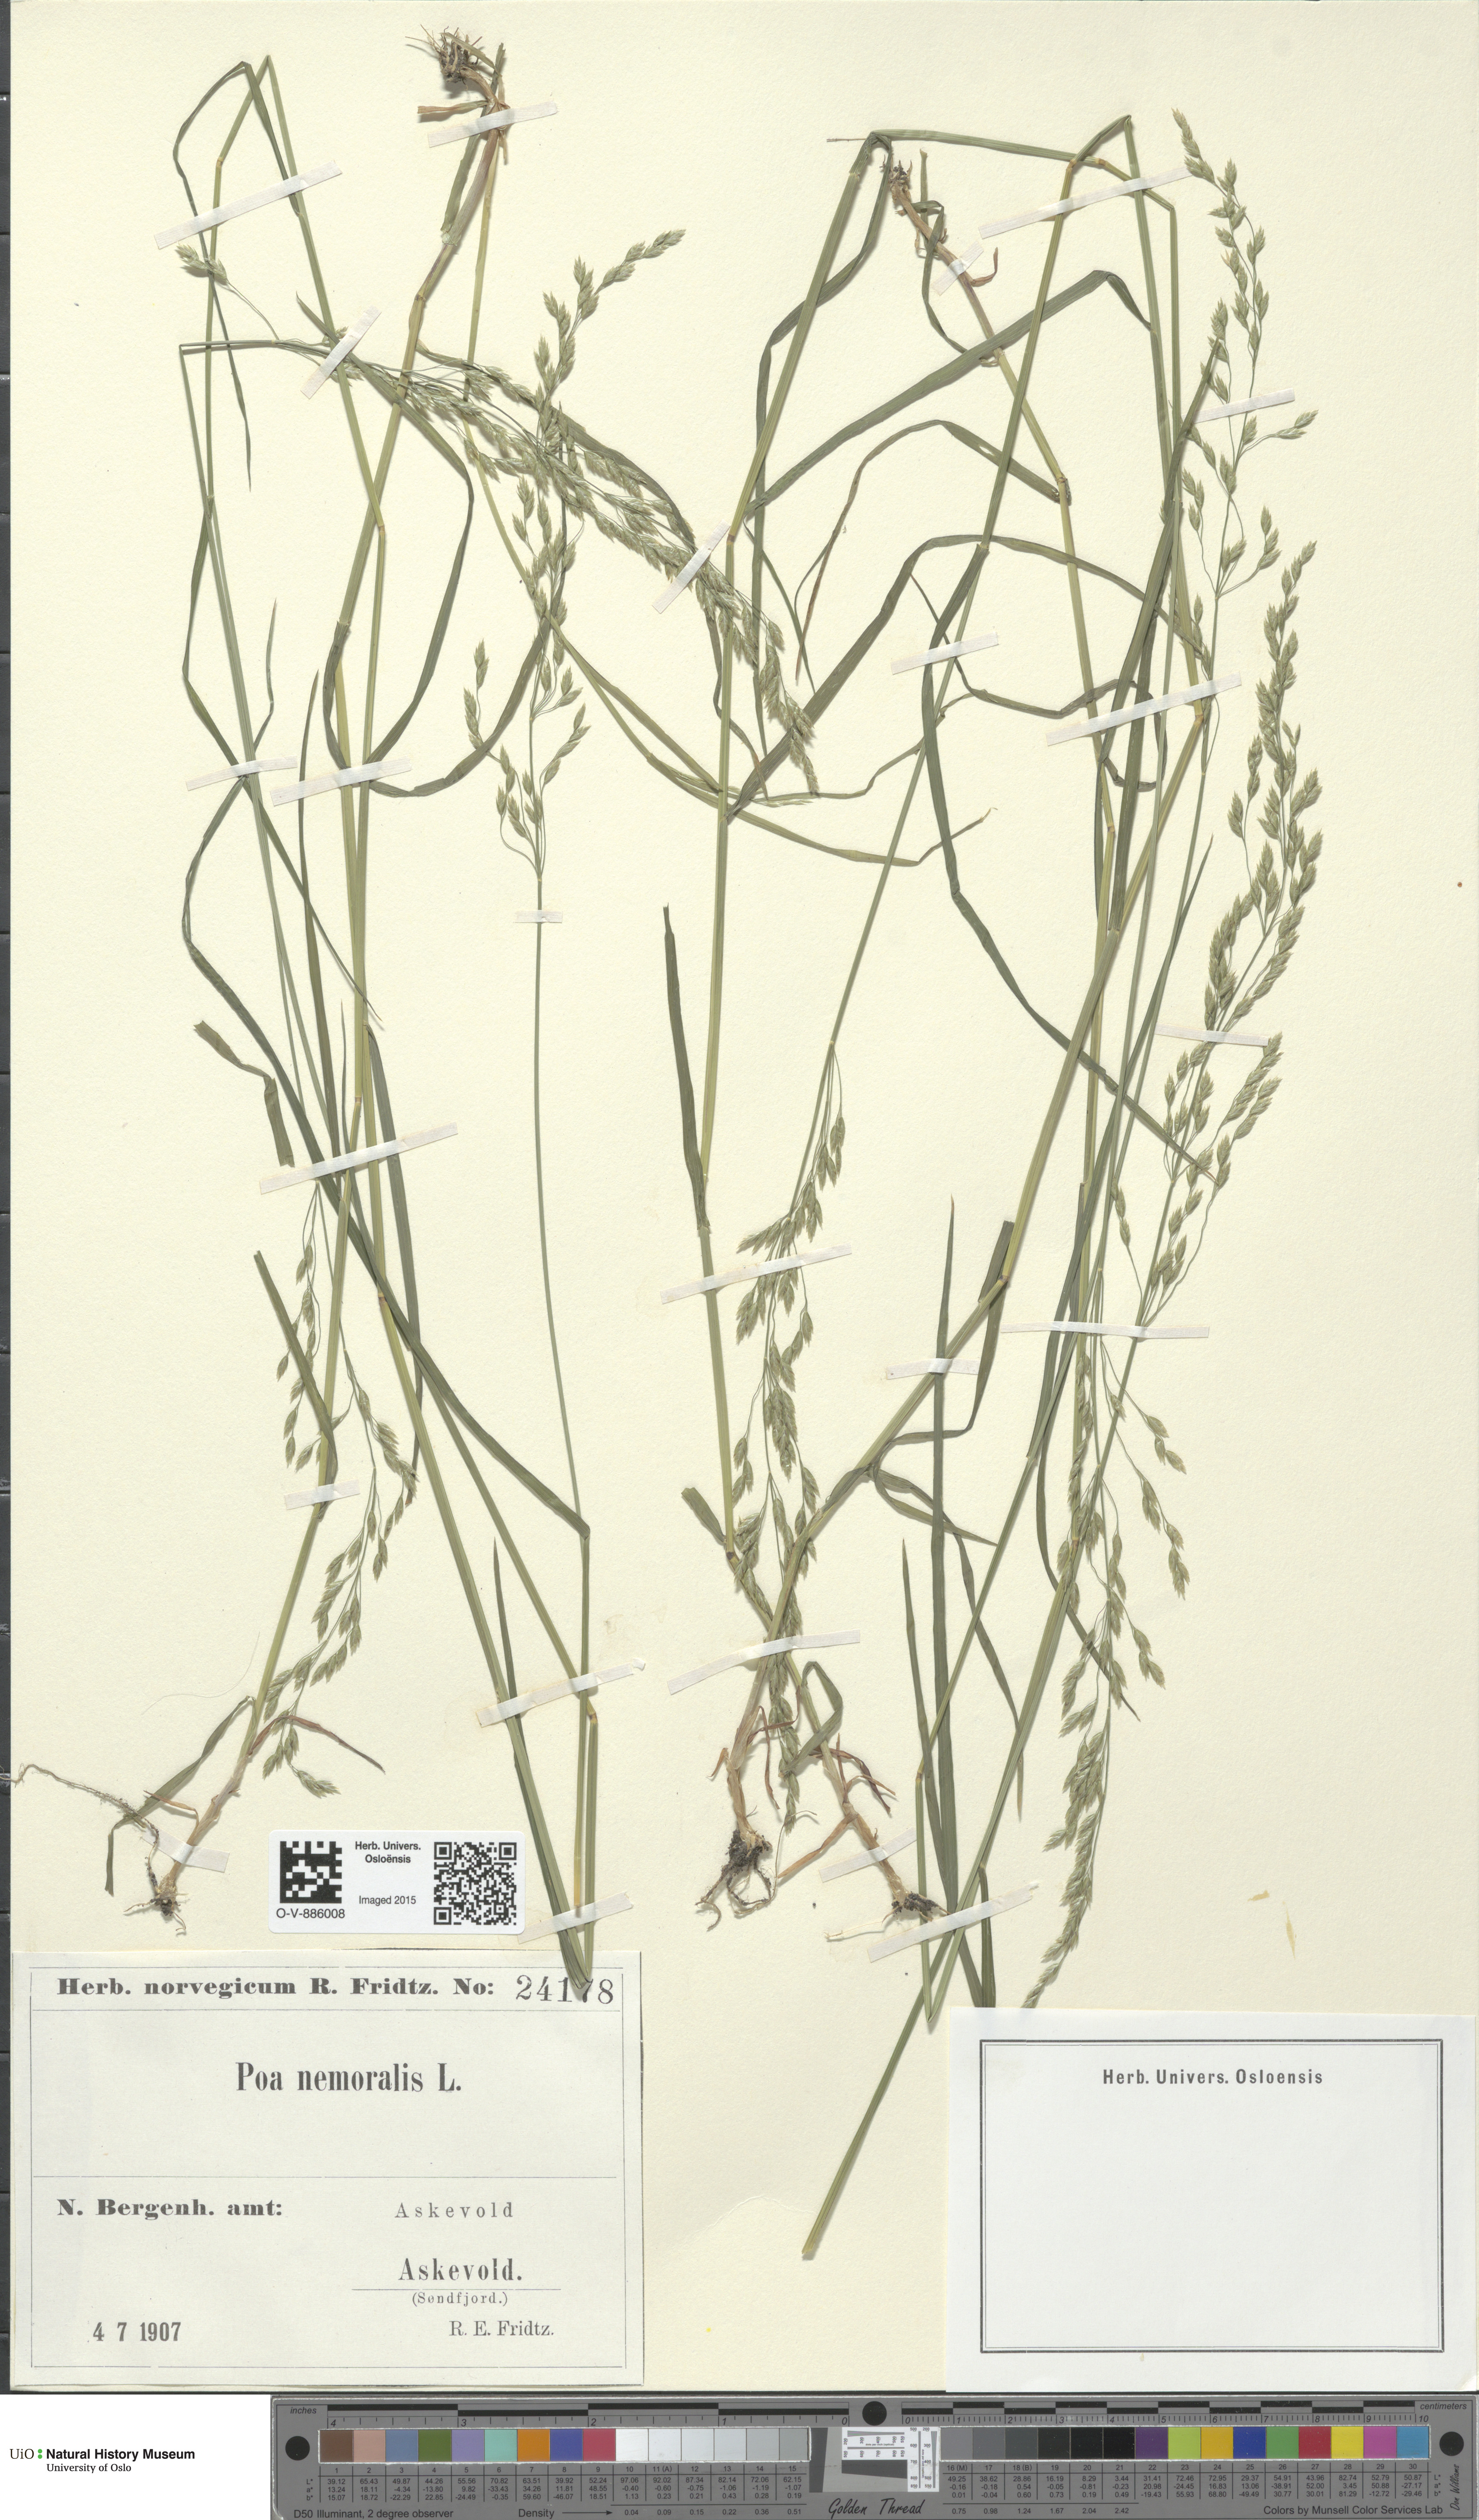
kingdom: Plantae
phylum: Tracheophyta
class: Liliopsida
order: Poales
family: Poaceae
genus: Poa
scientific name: Poa nemoralis
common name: Wood bluegrass
